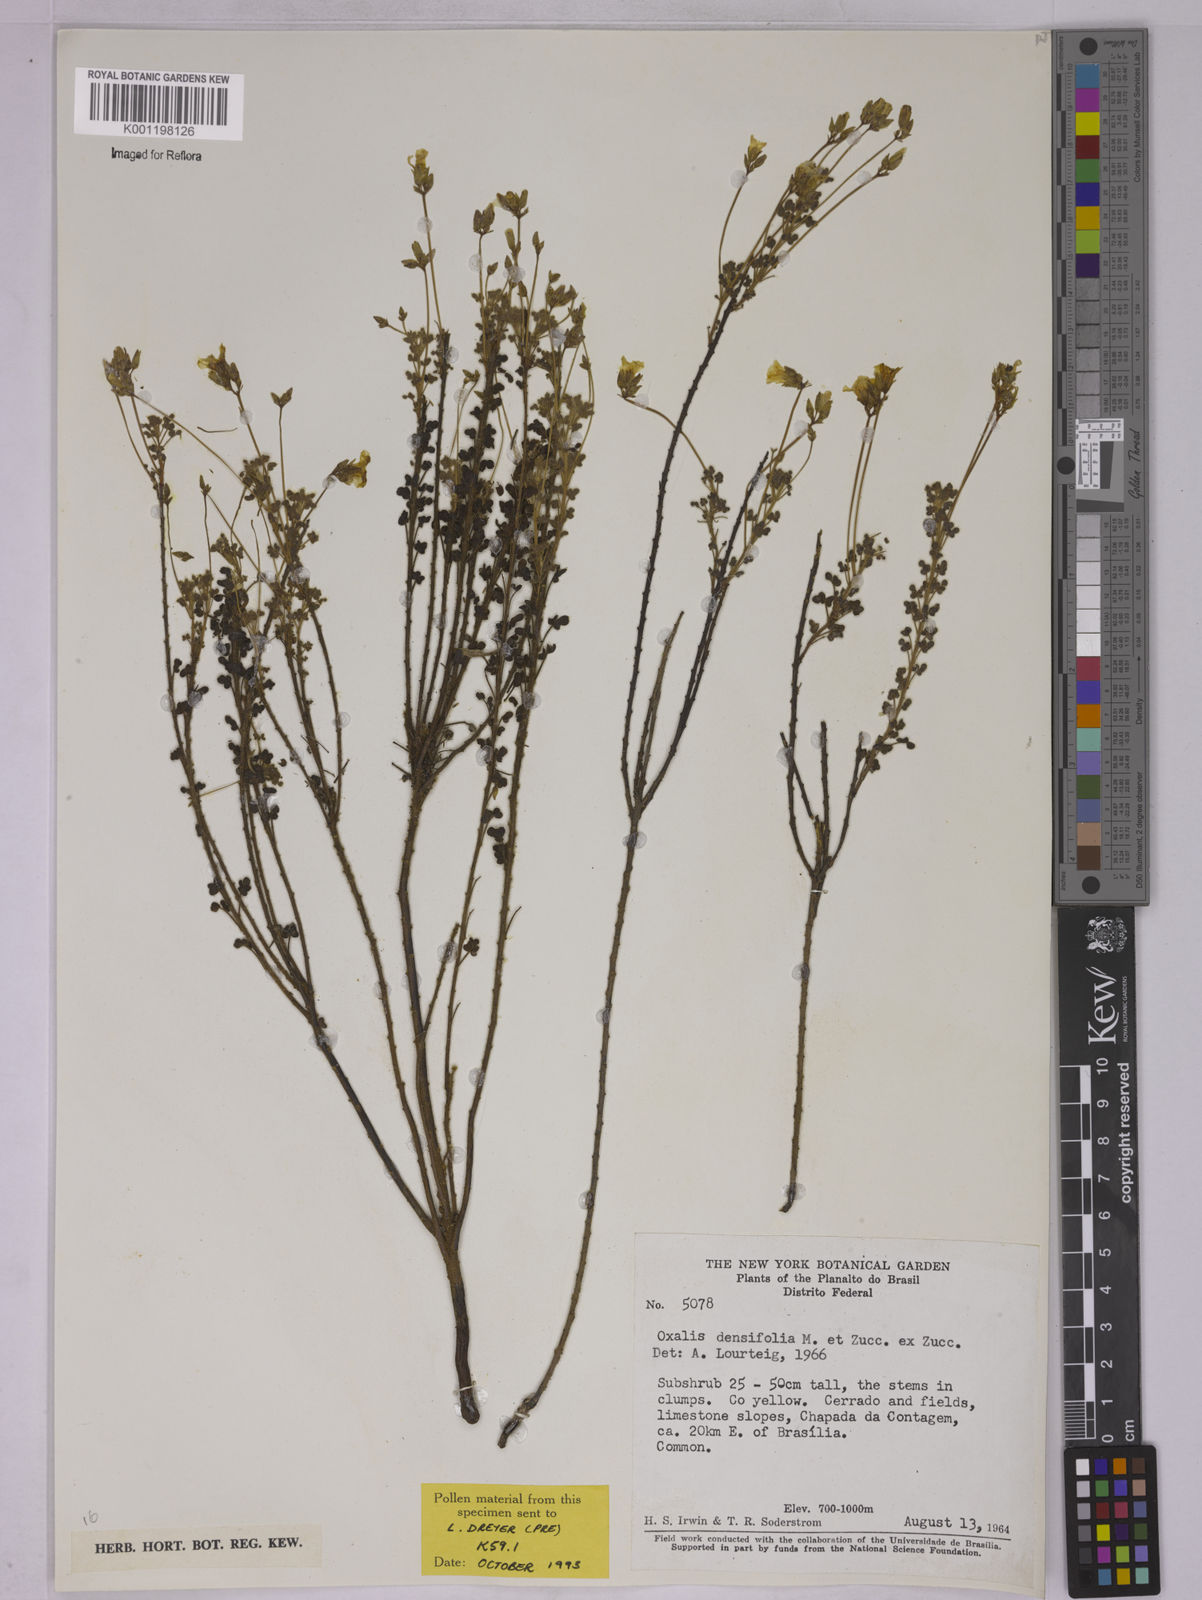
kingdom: Plantae
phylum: Tracheophyta
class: Magnoliopsida
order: Oxalidales
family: Oxalidaceae
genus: Oxalis
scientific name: Oxalis densifolia
